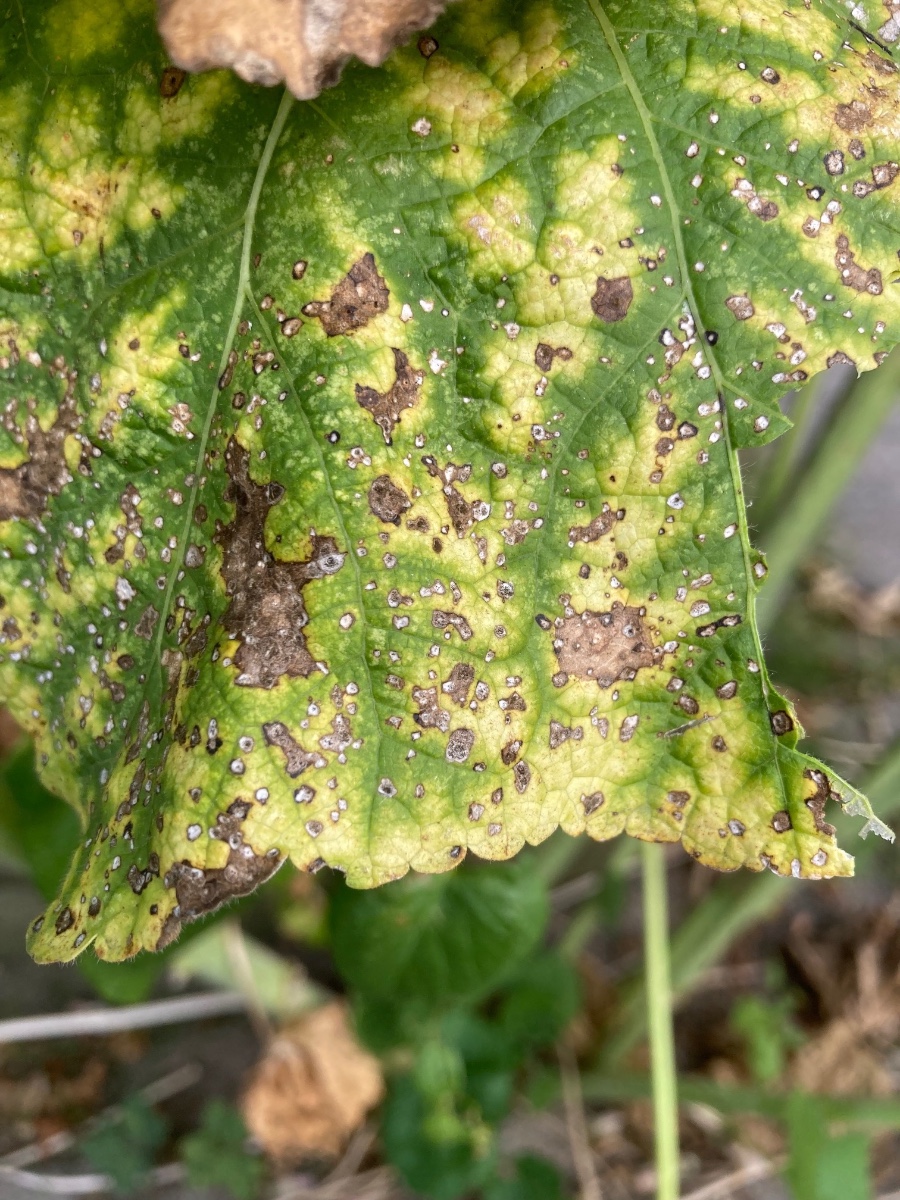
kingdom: Fungi
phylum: Ascomycota
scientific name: Ascomycota
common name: sæksvampe
